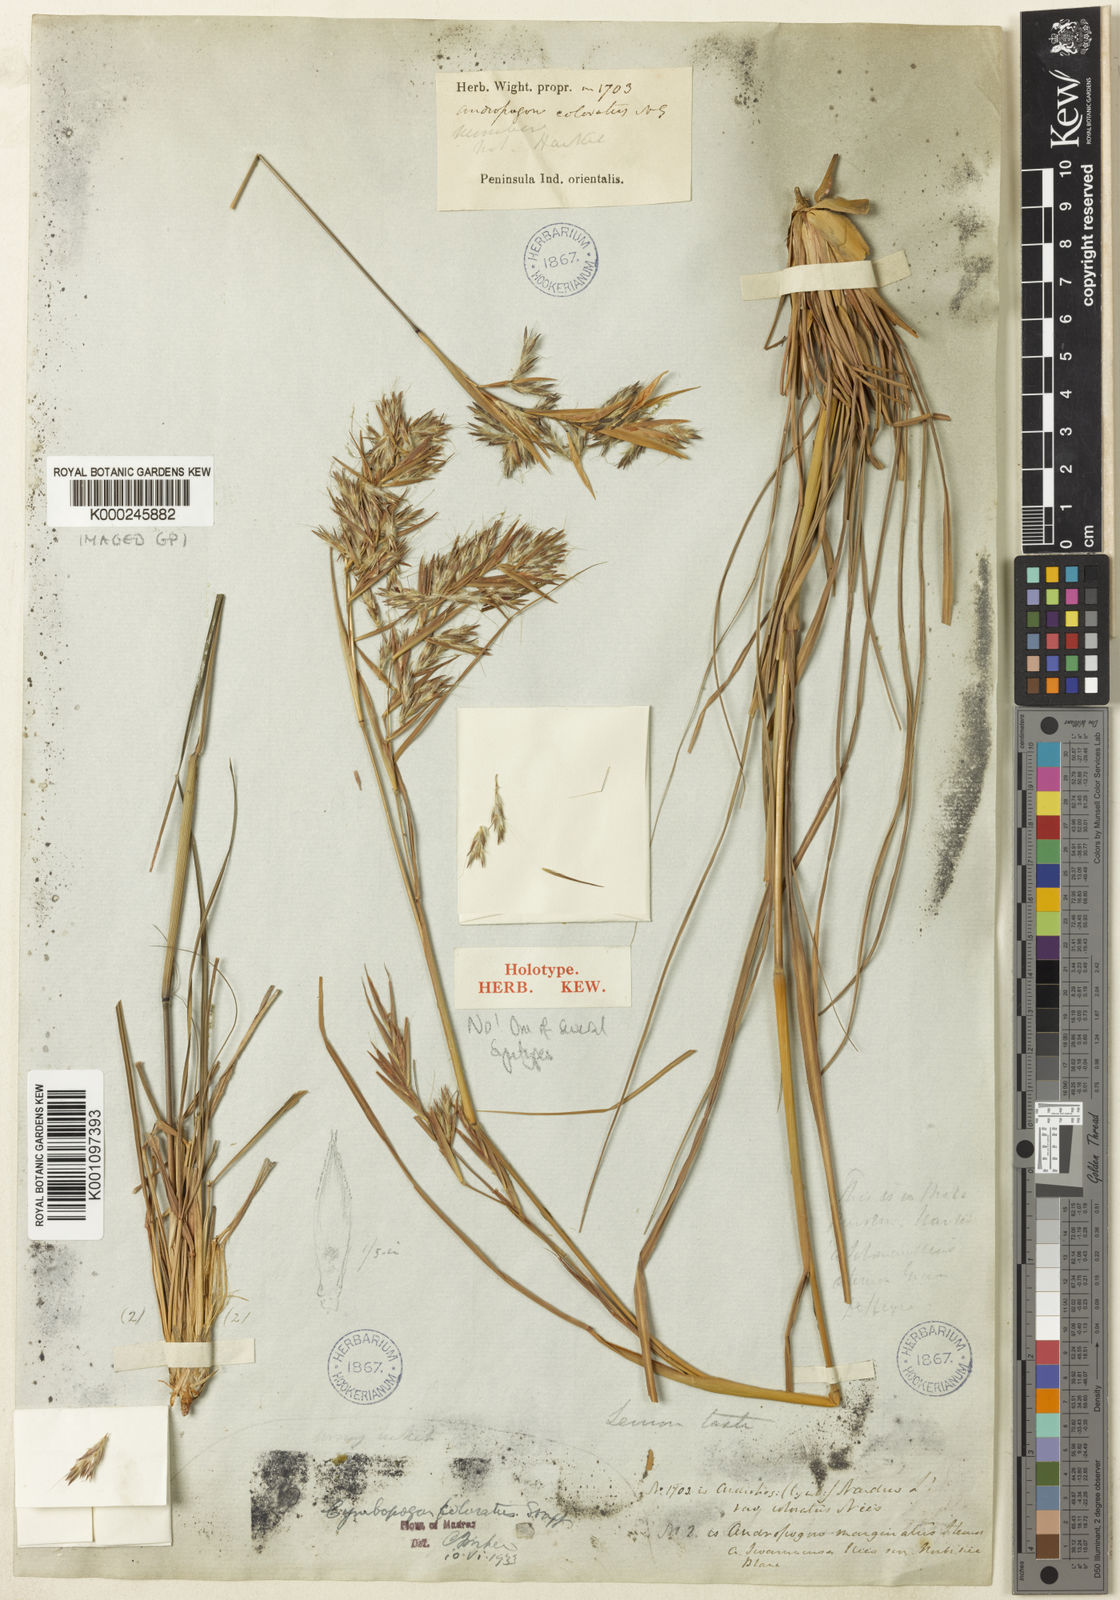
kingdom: Plantae
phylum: Tracheophyta
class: Liliopsida
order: Poales
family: Poaceae
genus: Cymbopogon
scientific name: Cymbopogon coloratus
